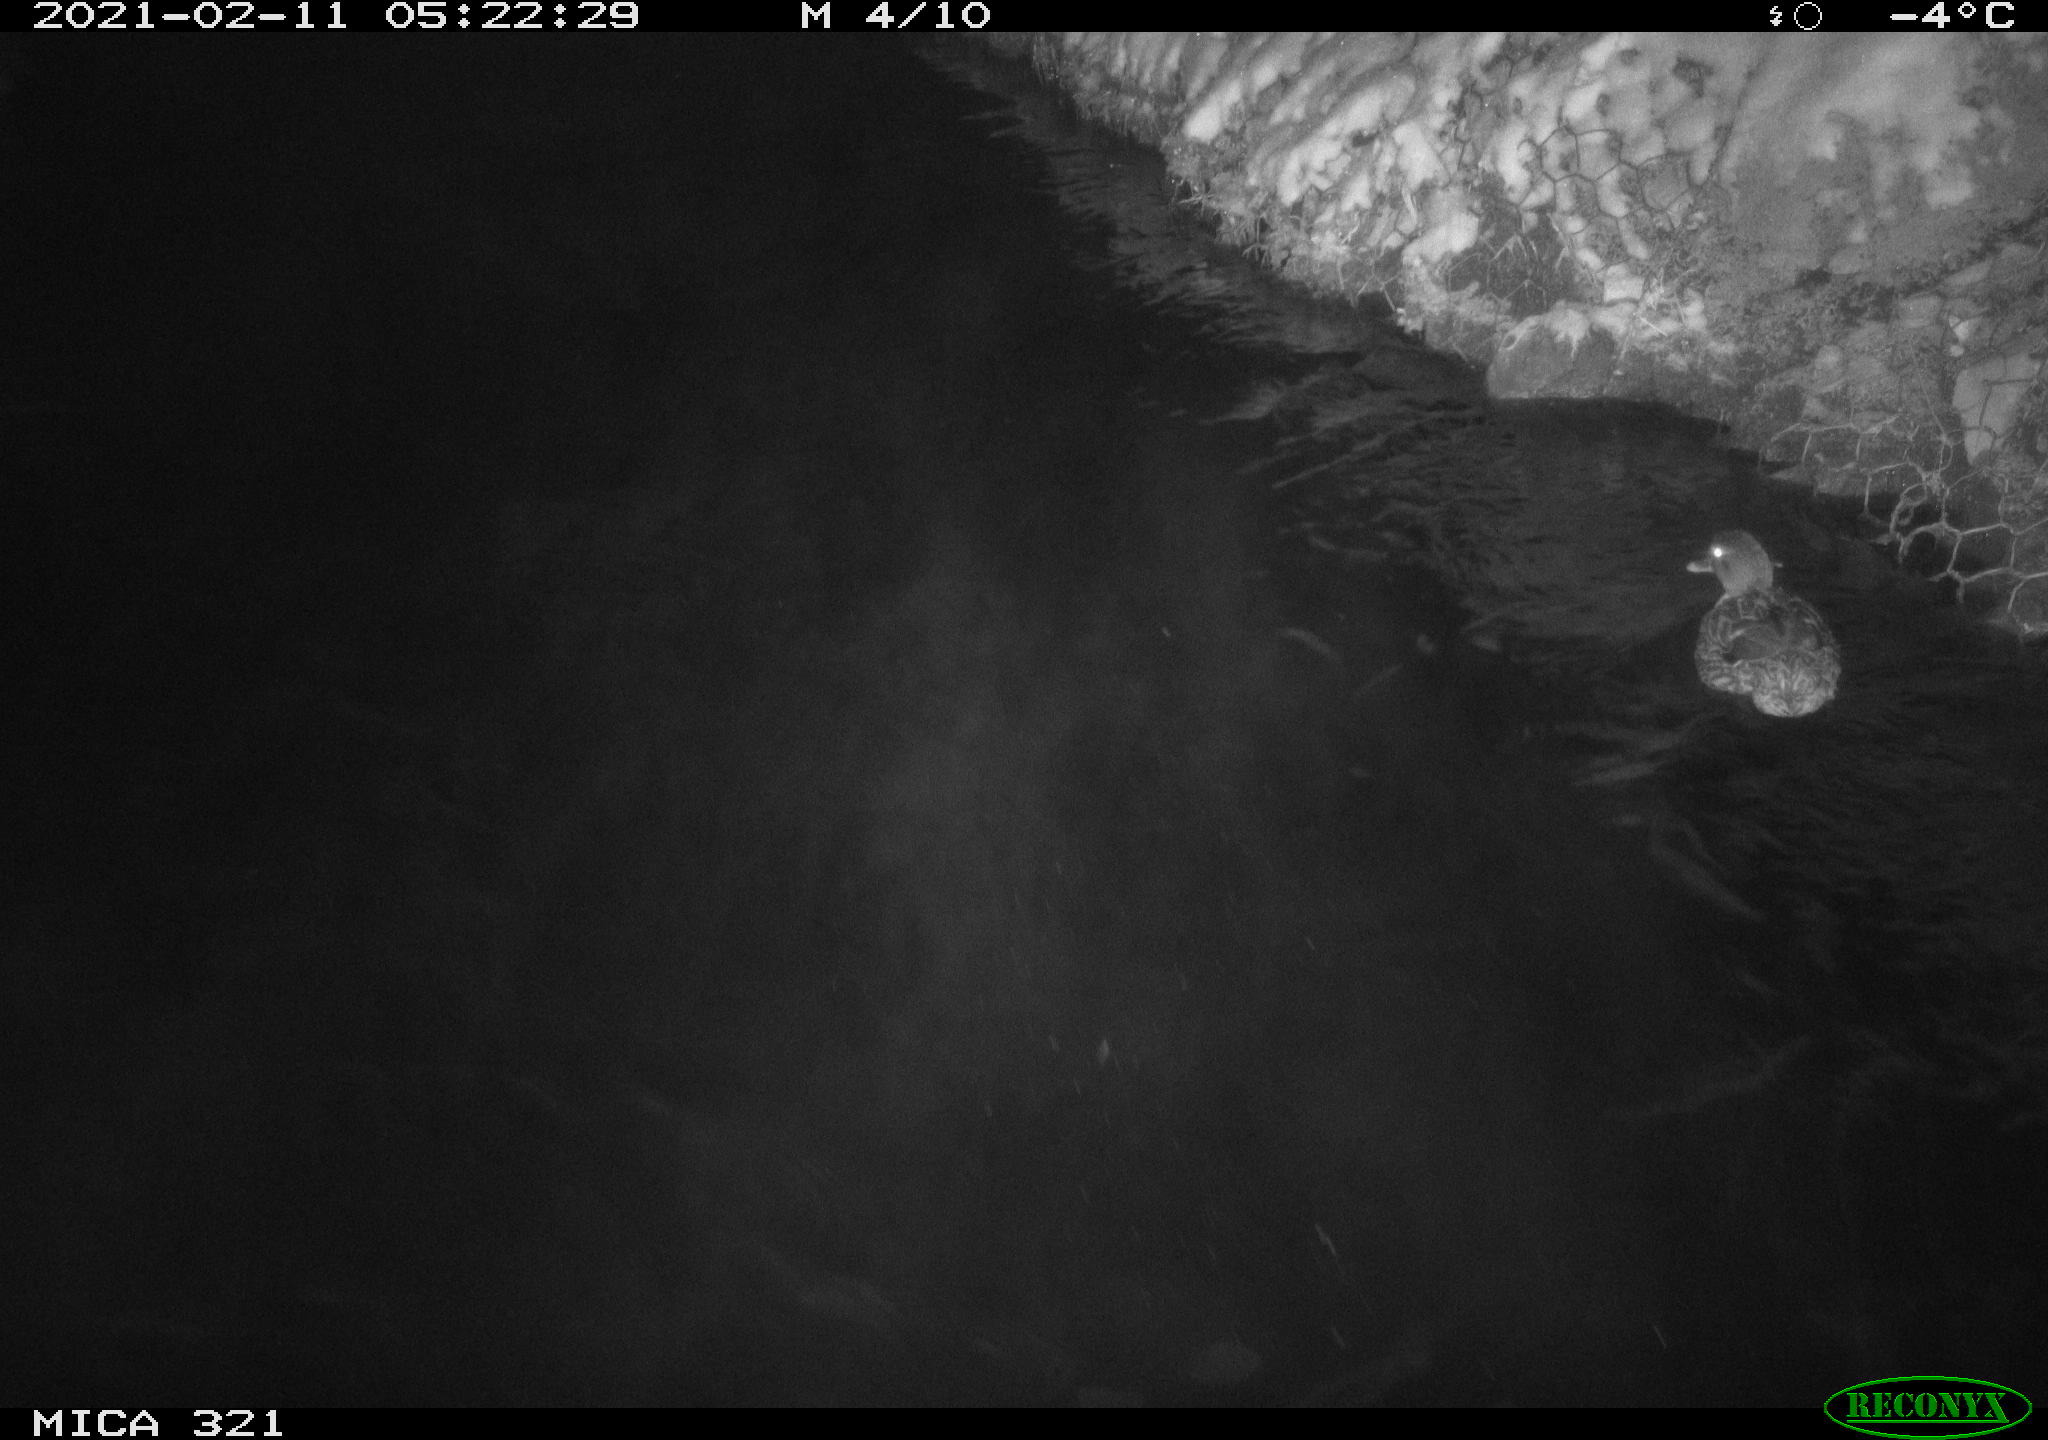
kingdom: Animalia
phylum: Chordata
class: Aves
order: Anseriformes
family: Anatidae
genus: Anas
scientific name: Anas platyrhynchos
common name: Mallard
